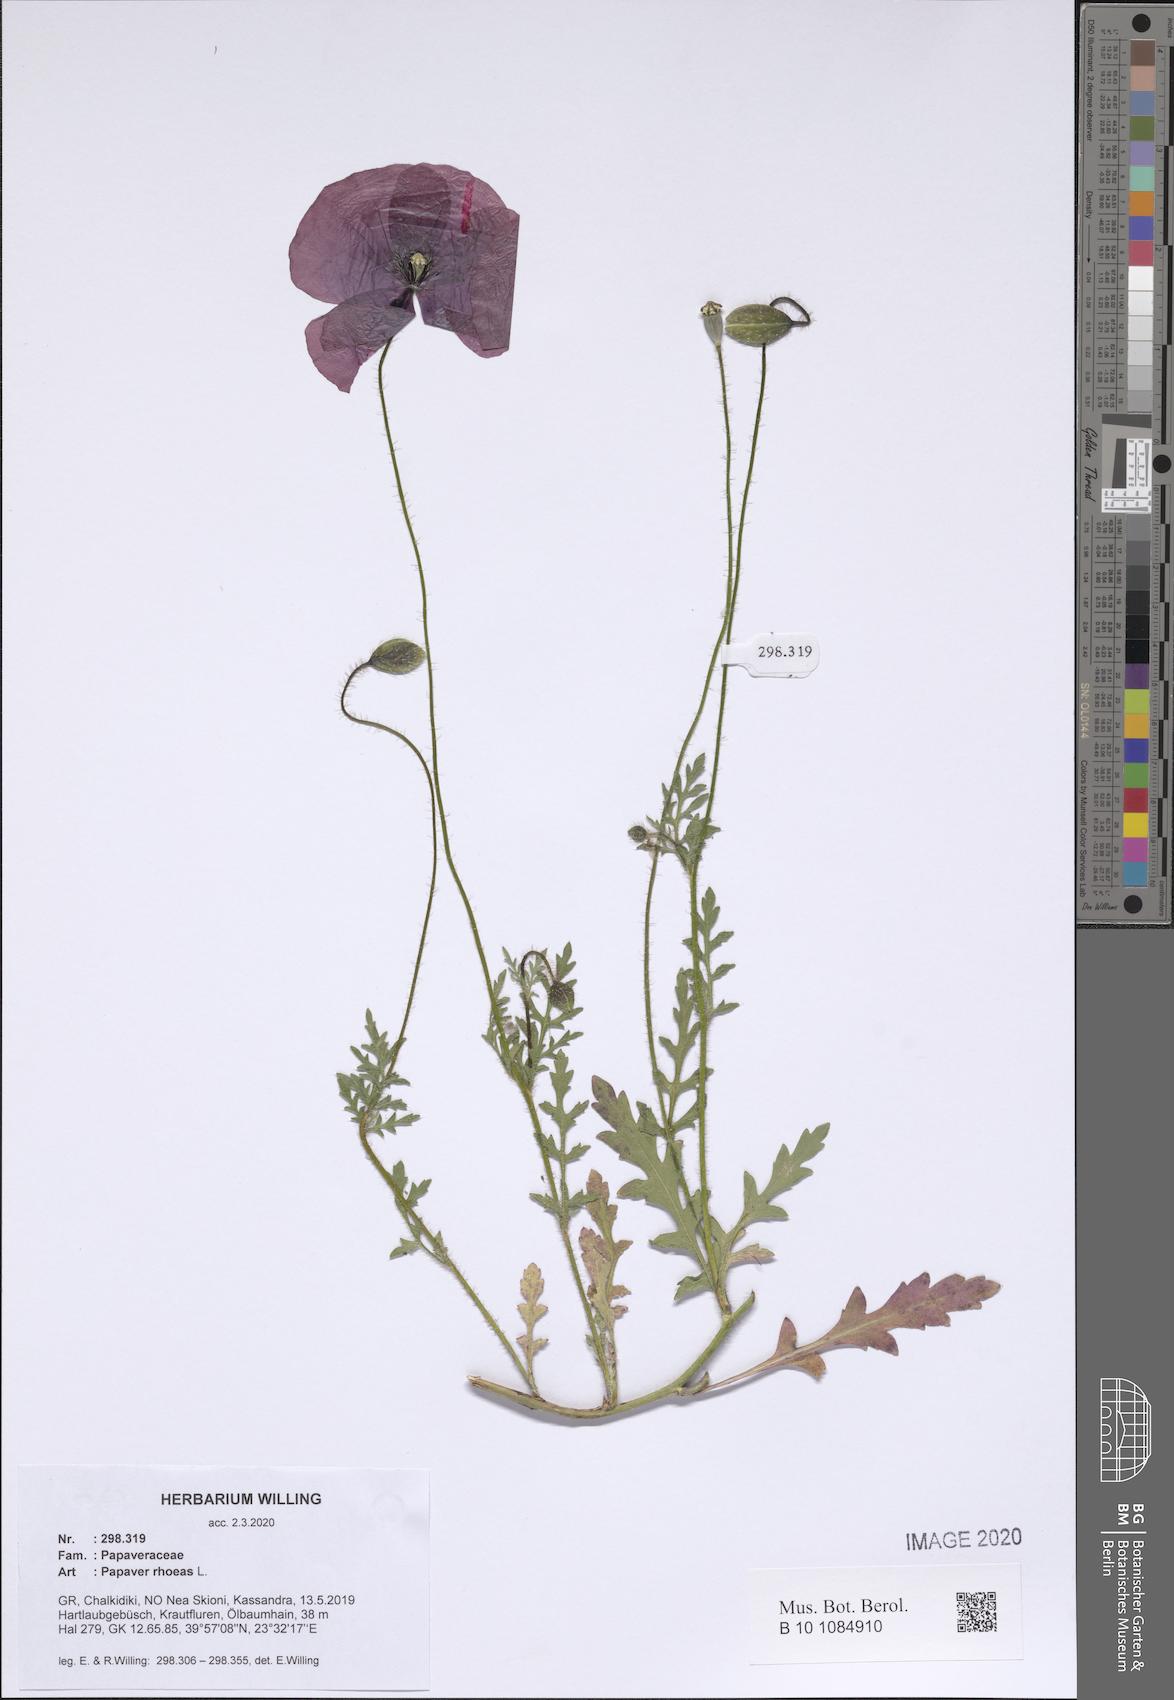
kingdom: Plantae
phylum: Tracheophyta
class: Magnoliopsida
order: Ranunculales
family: Papaveraceae
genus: Papaver
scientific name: Papaver rhoeas
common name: Corn poppy
